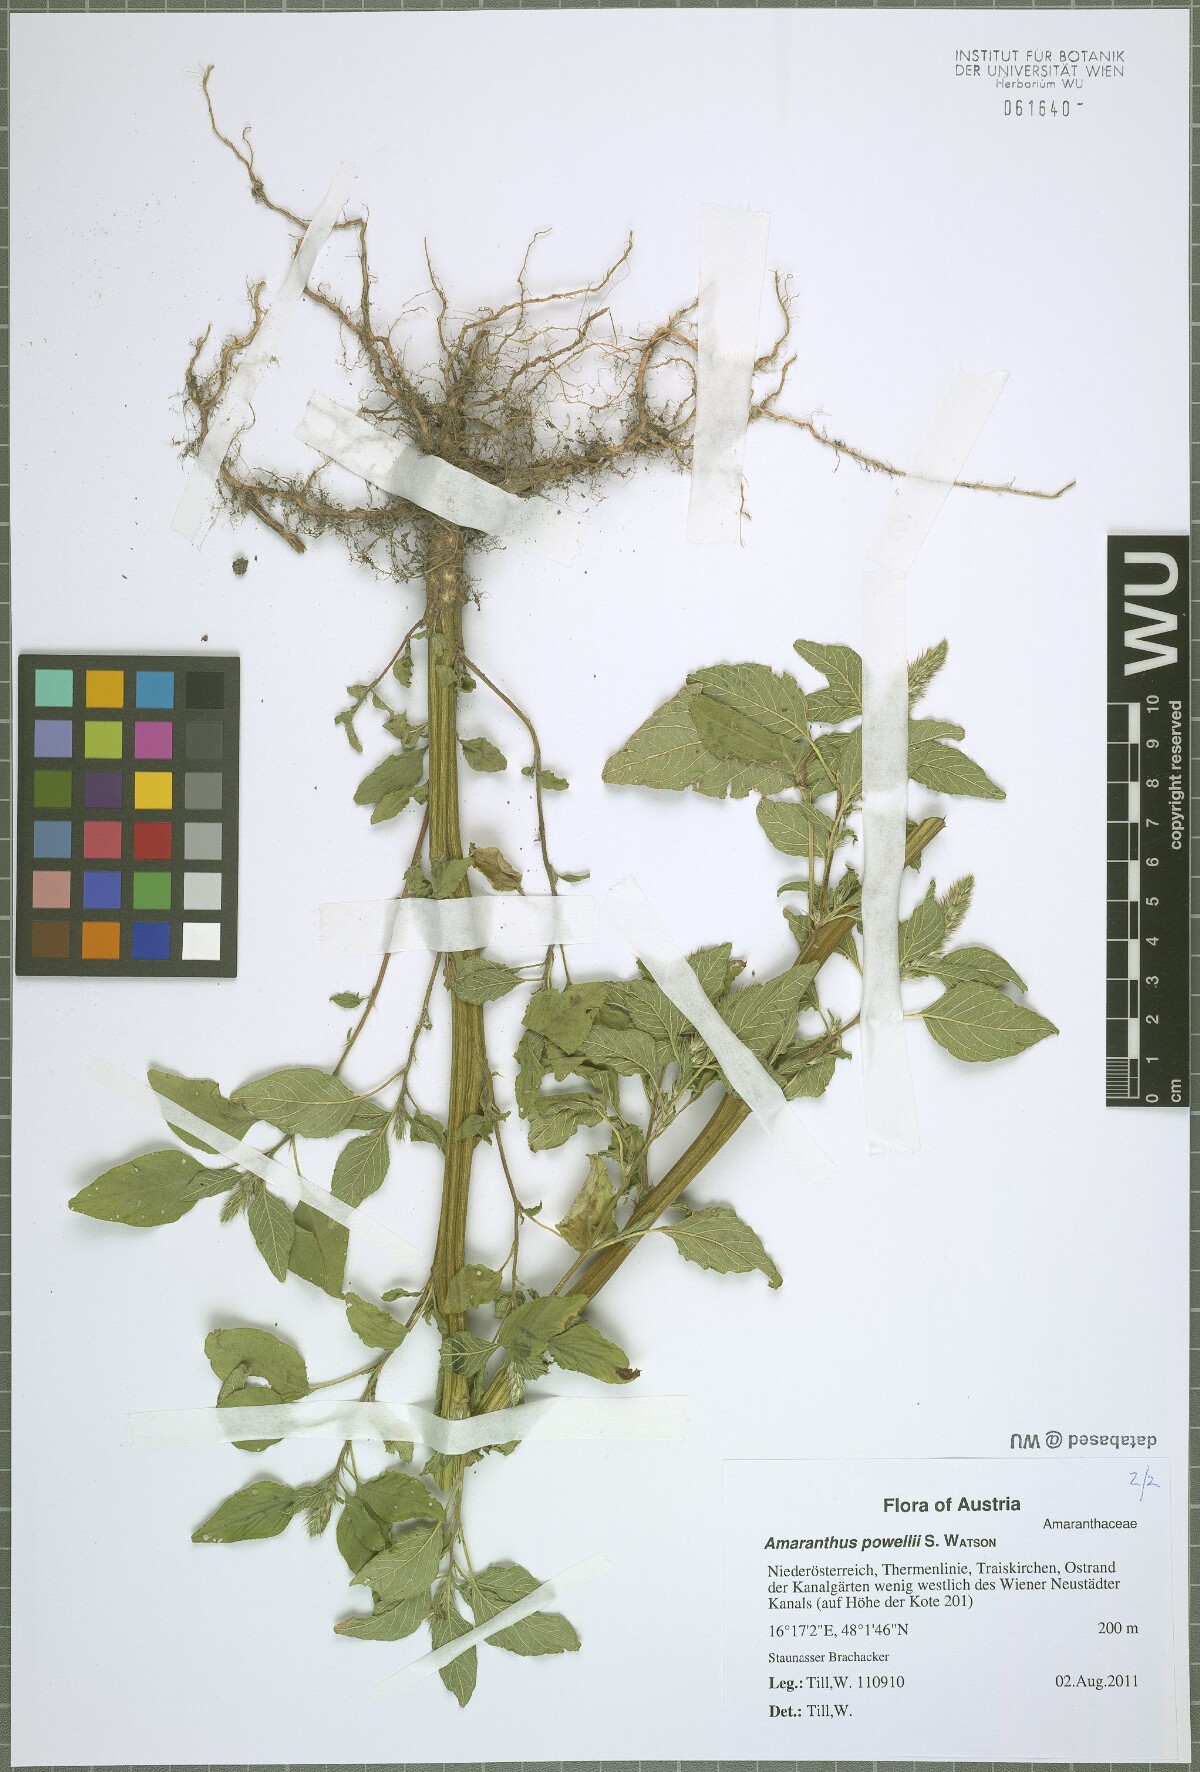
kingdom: Plantae
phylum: Tracheophyta
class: Magnoliopsida
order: Caryophyllales
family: Amaranthaceae
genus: Amaranthus
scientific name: Amaranthus powellii
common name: Powell's amaranth
